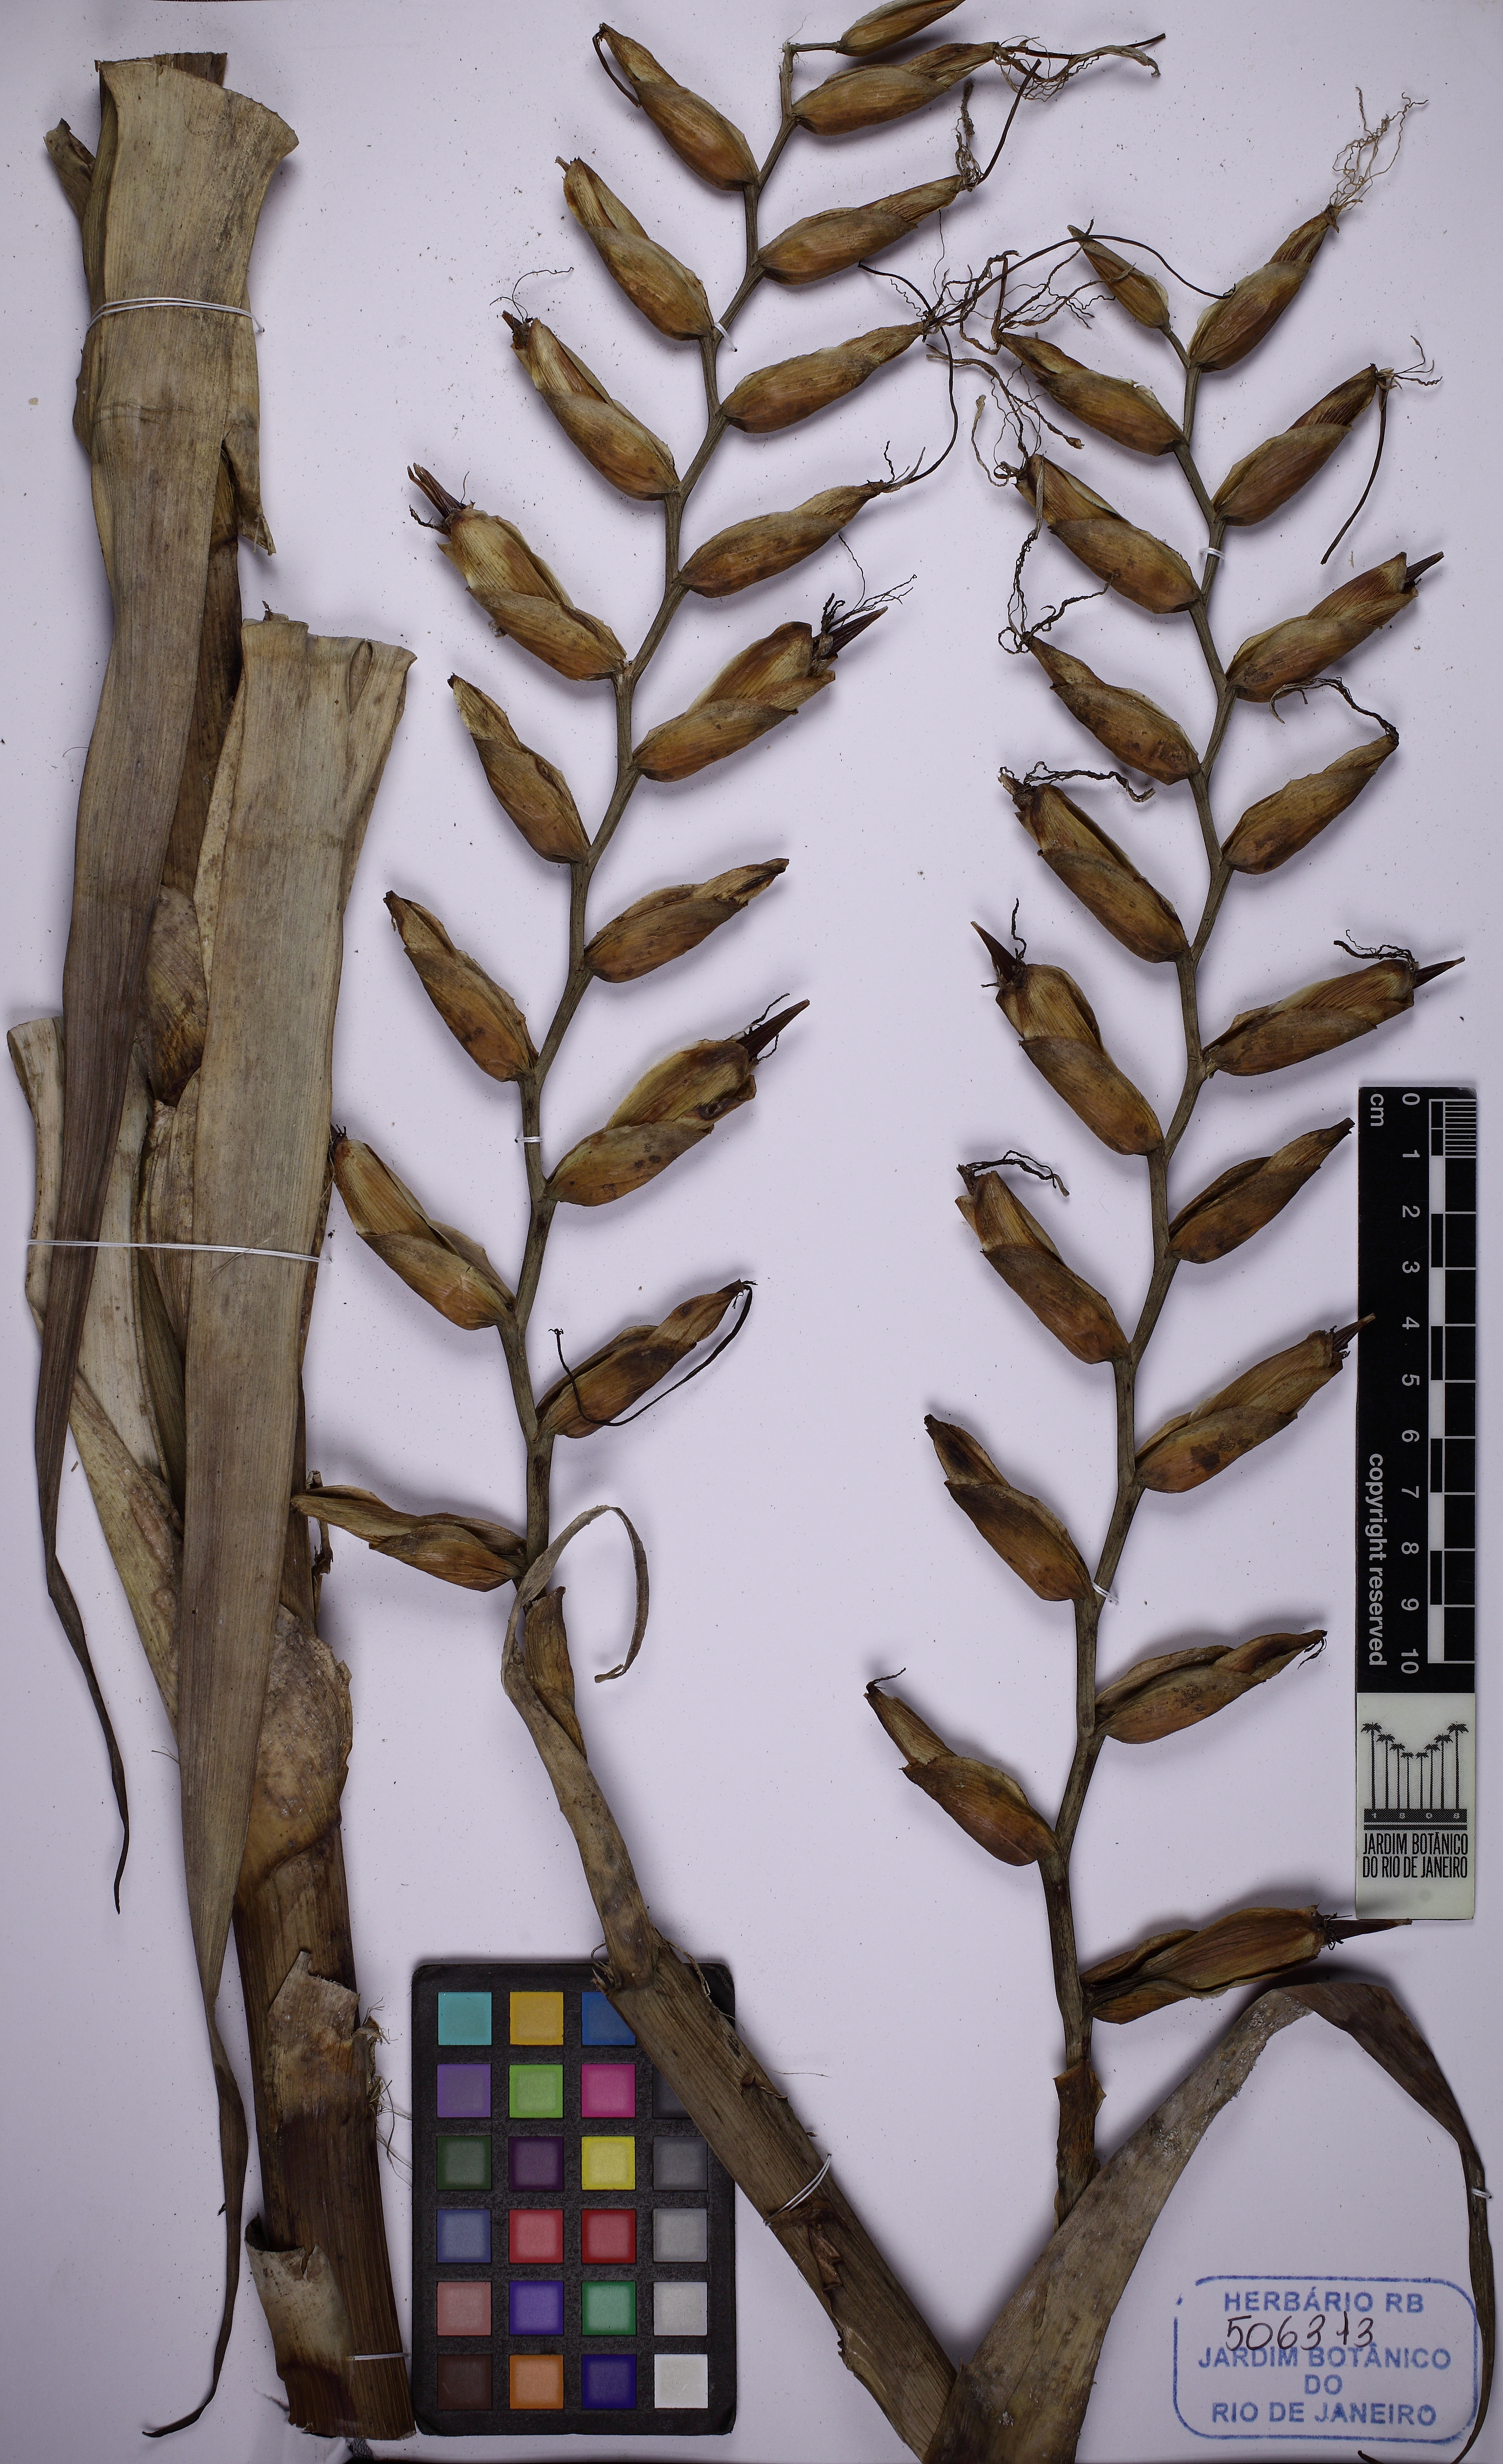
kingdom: Plantae
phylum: Tracheophyta
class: Liliopsida
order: Poales
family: Bromeliaceae
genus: Alcantarea
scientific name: Alcantarea odorata
